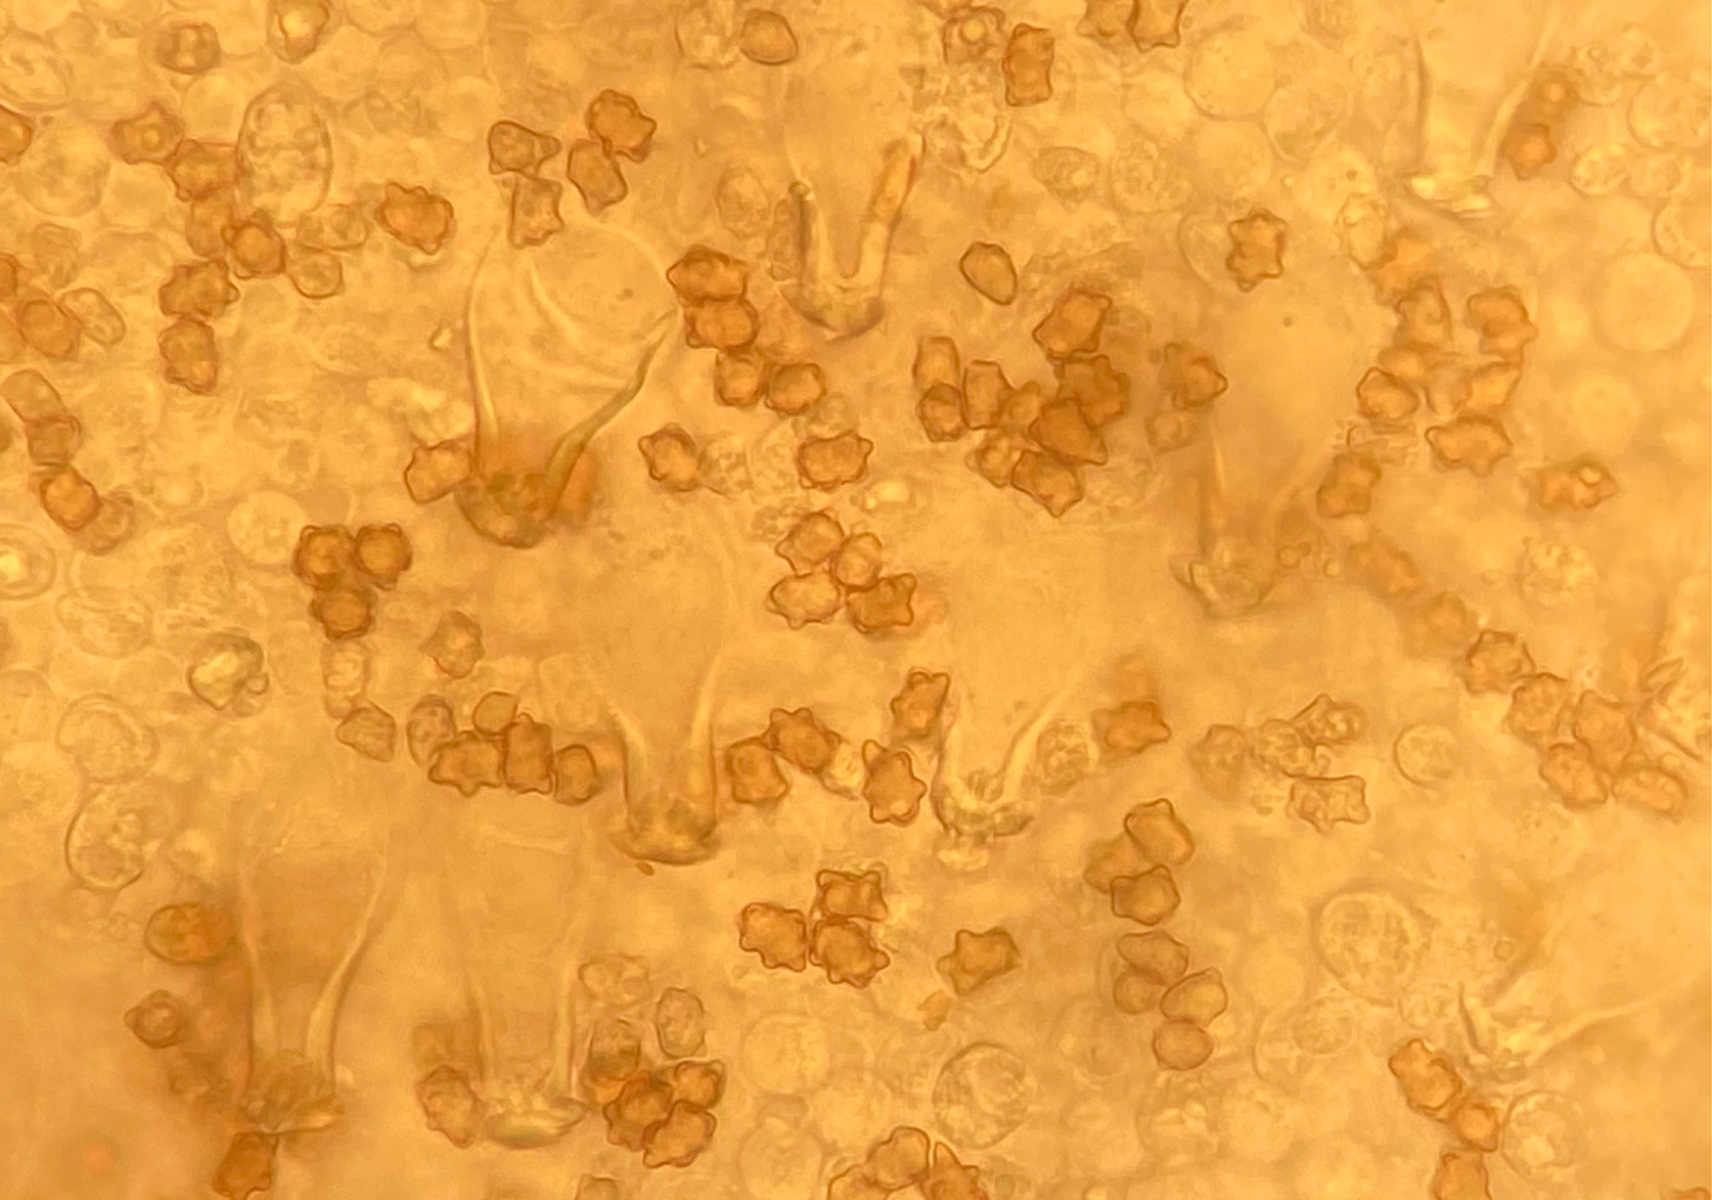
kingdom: Fungi
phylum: Basidiomycota
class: Agaricomycetes
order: Agaricales
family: Inocybaceae
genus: Inocybe
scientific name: Inocybe mixtilis
